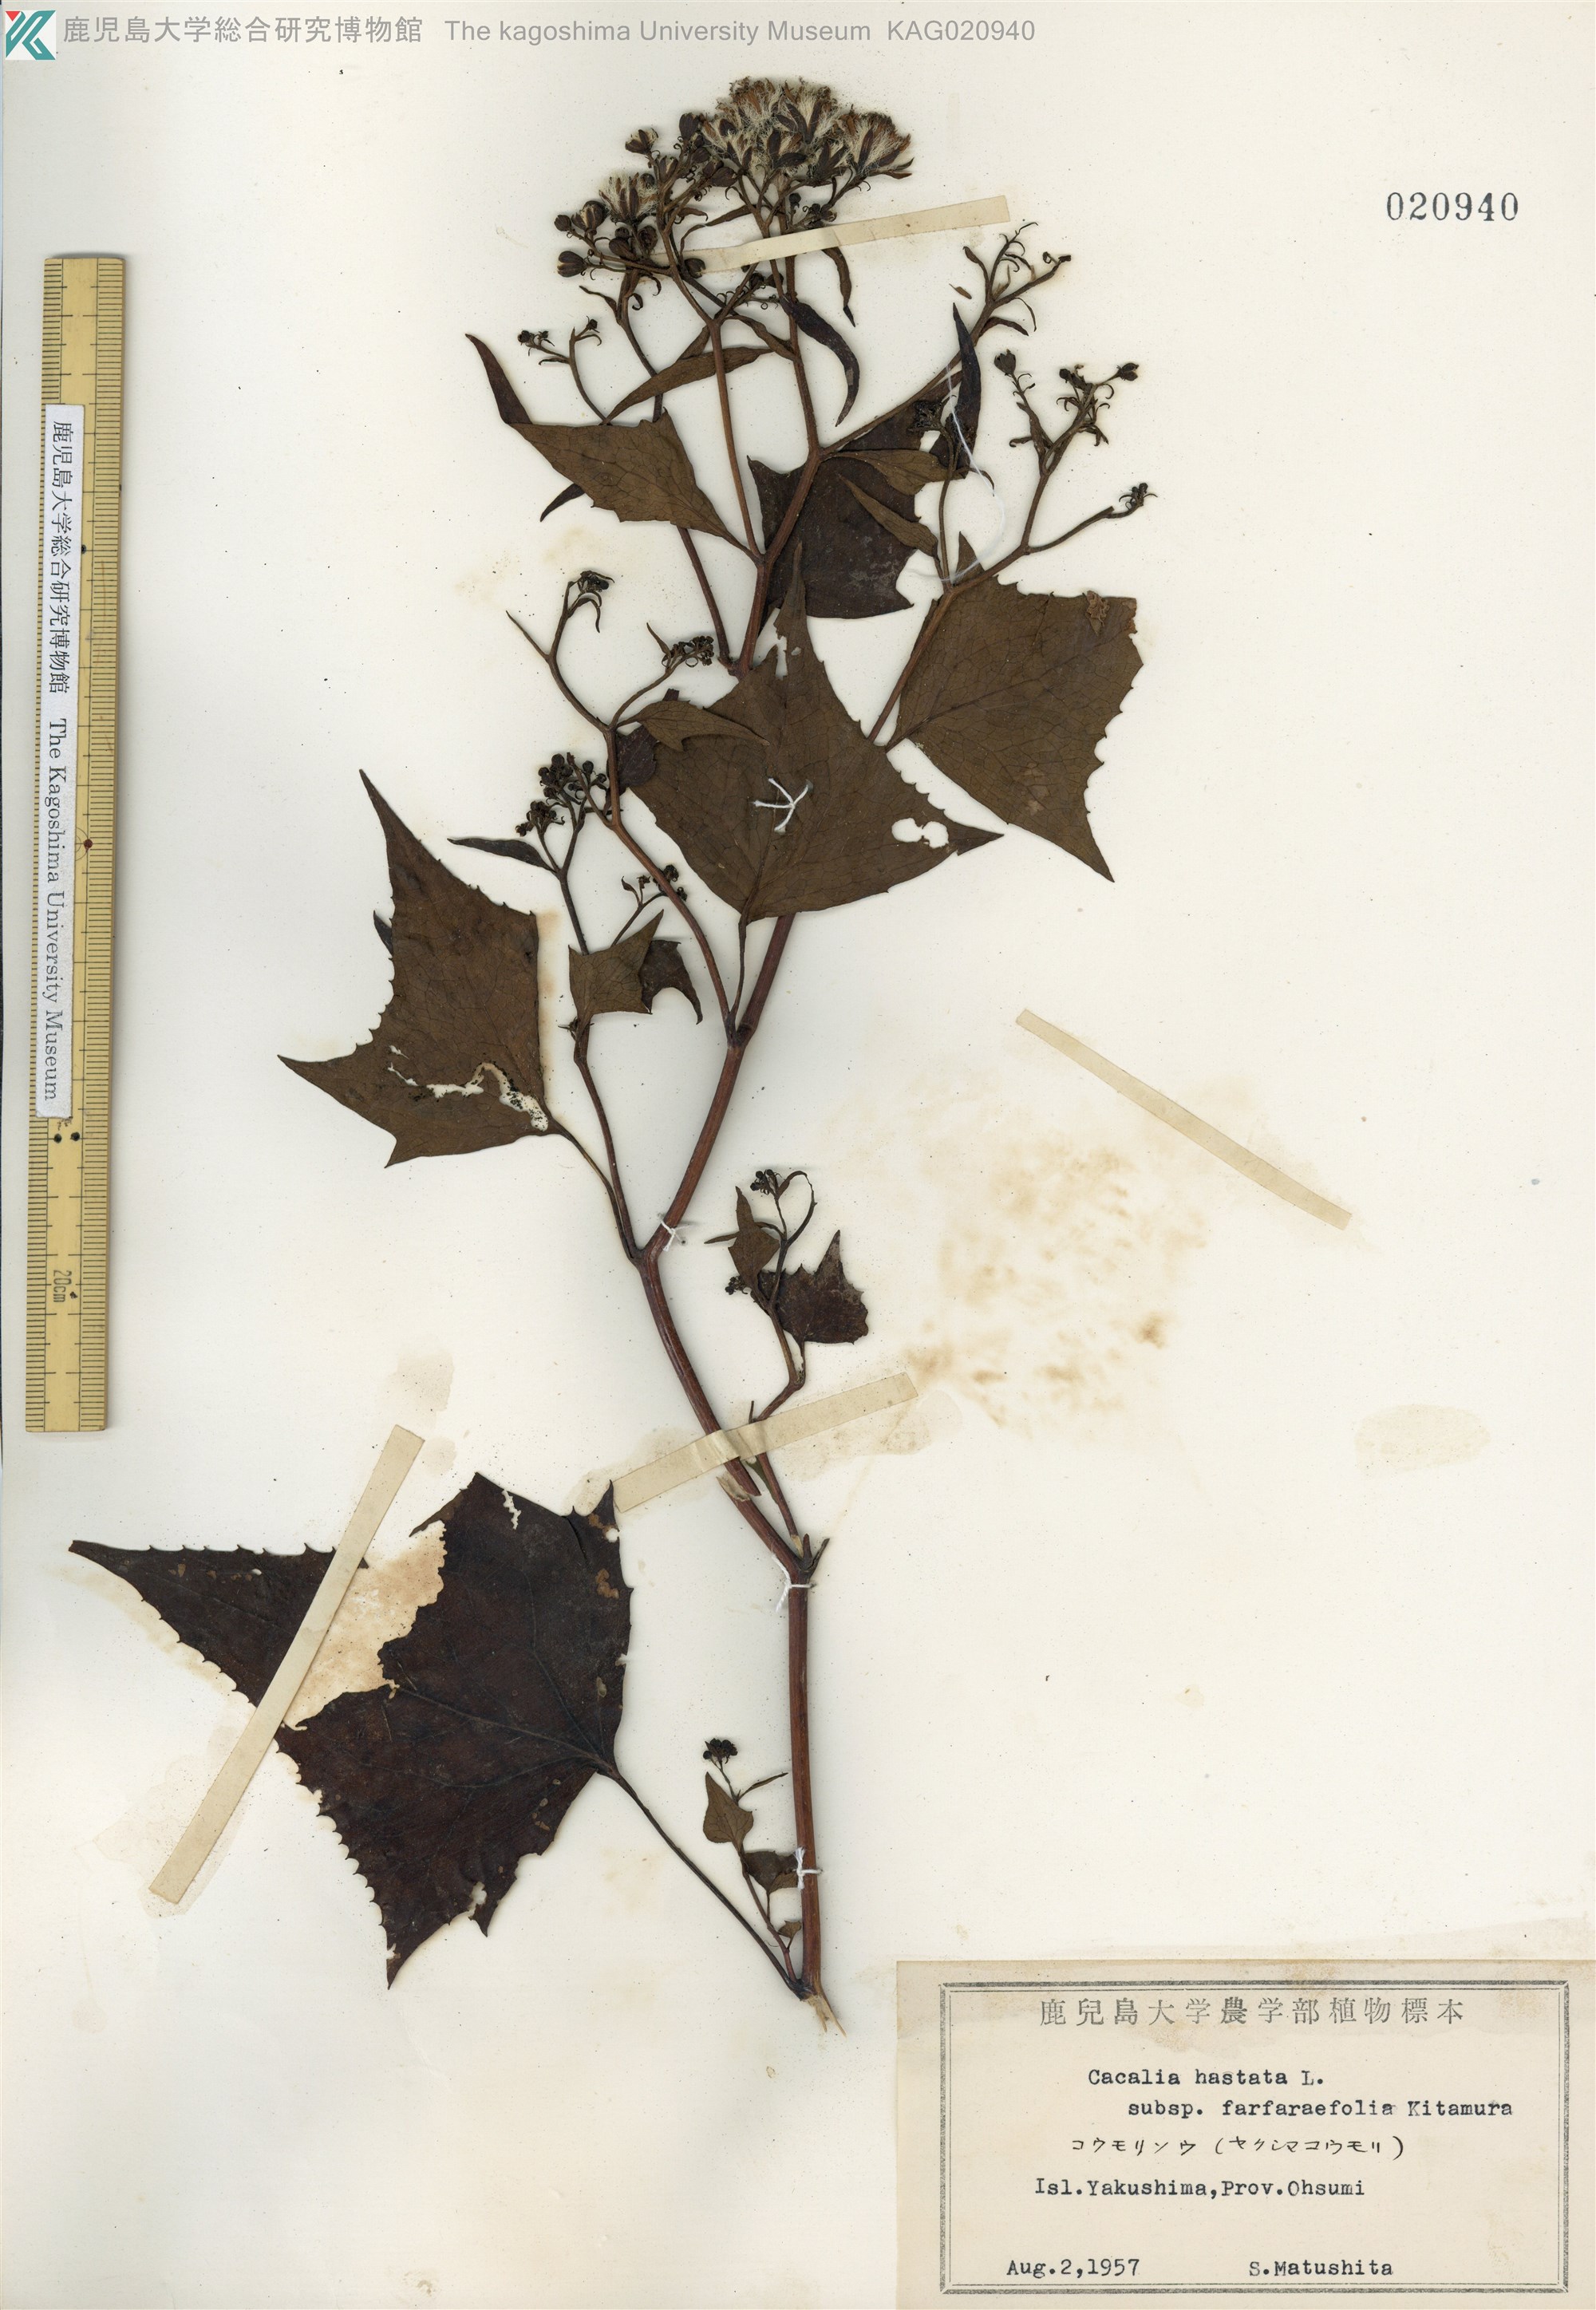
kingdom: Plantae
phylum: Tracheophyta
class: Magnoliopsida
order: Asterales
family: Asteraceae
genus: Parasenecio
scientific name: Parasenecio yakusimensis
